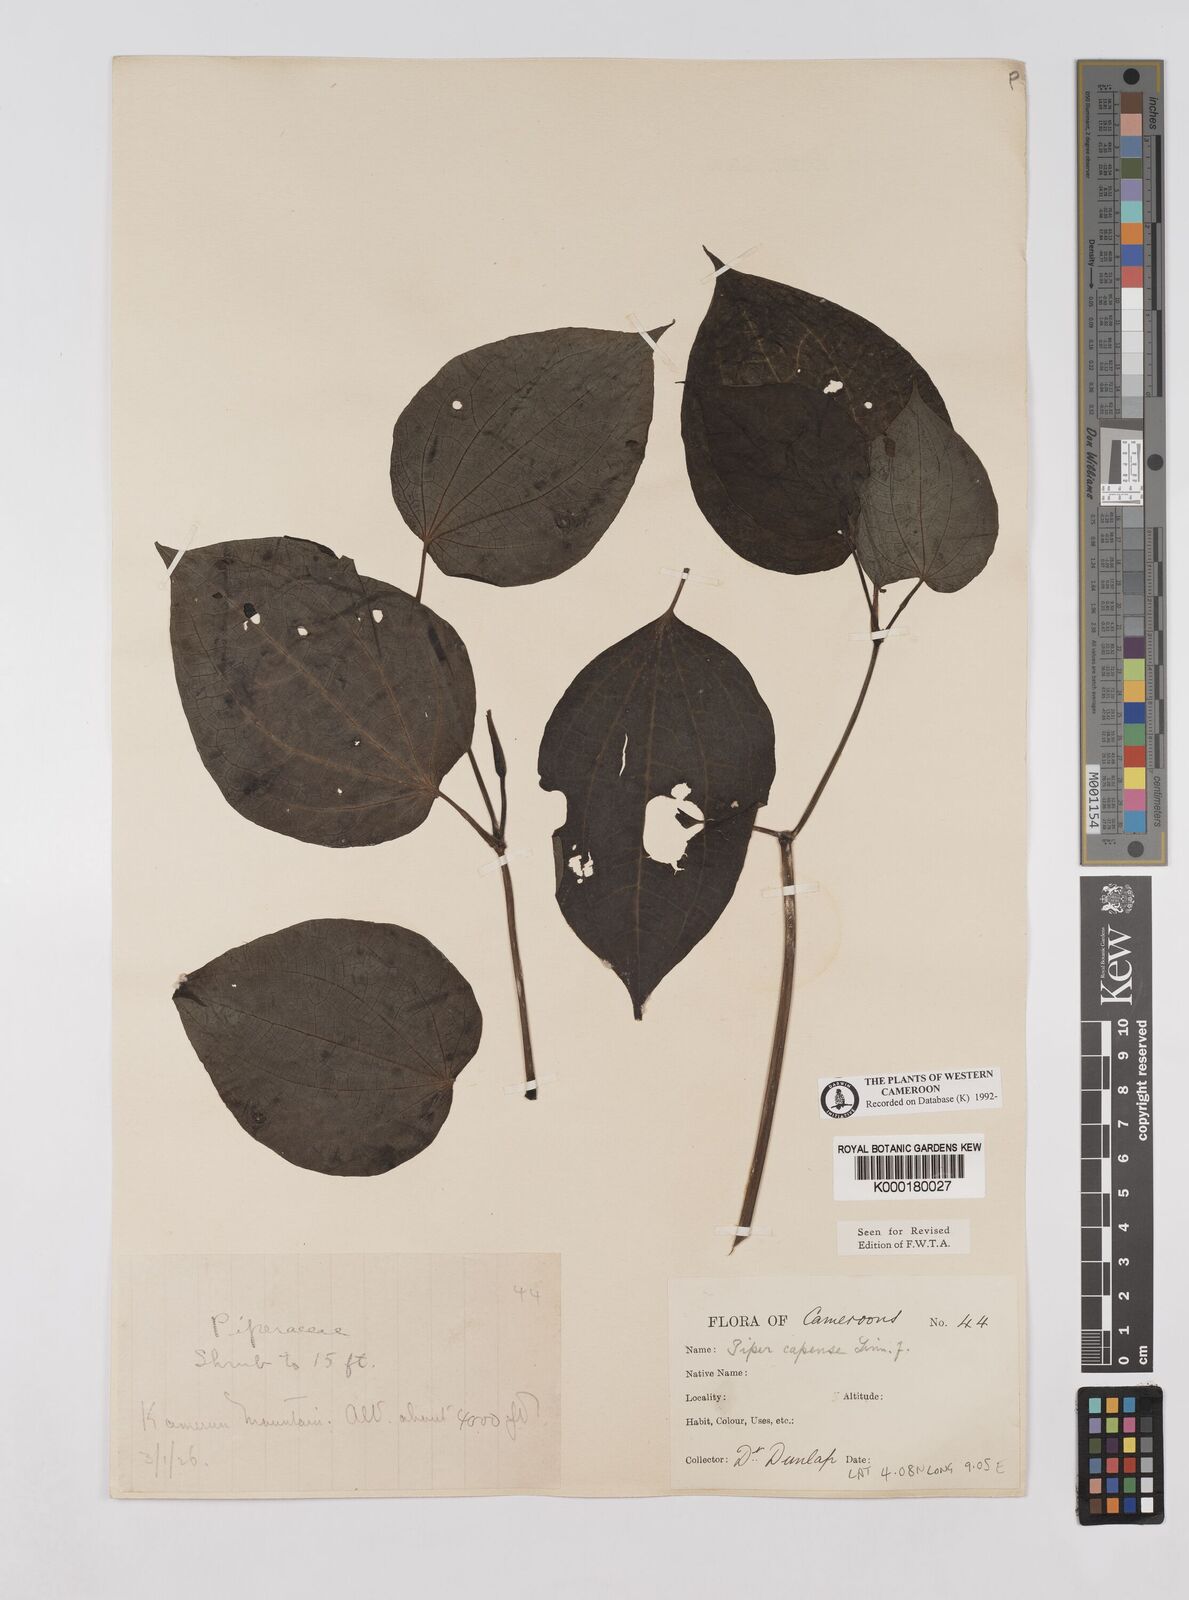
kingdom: Plantae
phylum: Tracheophyta
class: Magnoliopsida
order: Piperales
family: Piperaceae
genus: Piper
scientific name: Piper capense
